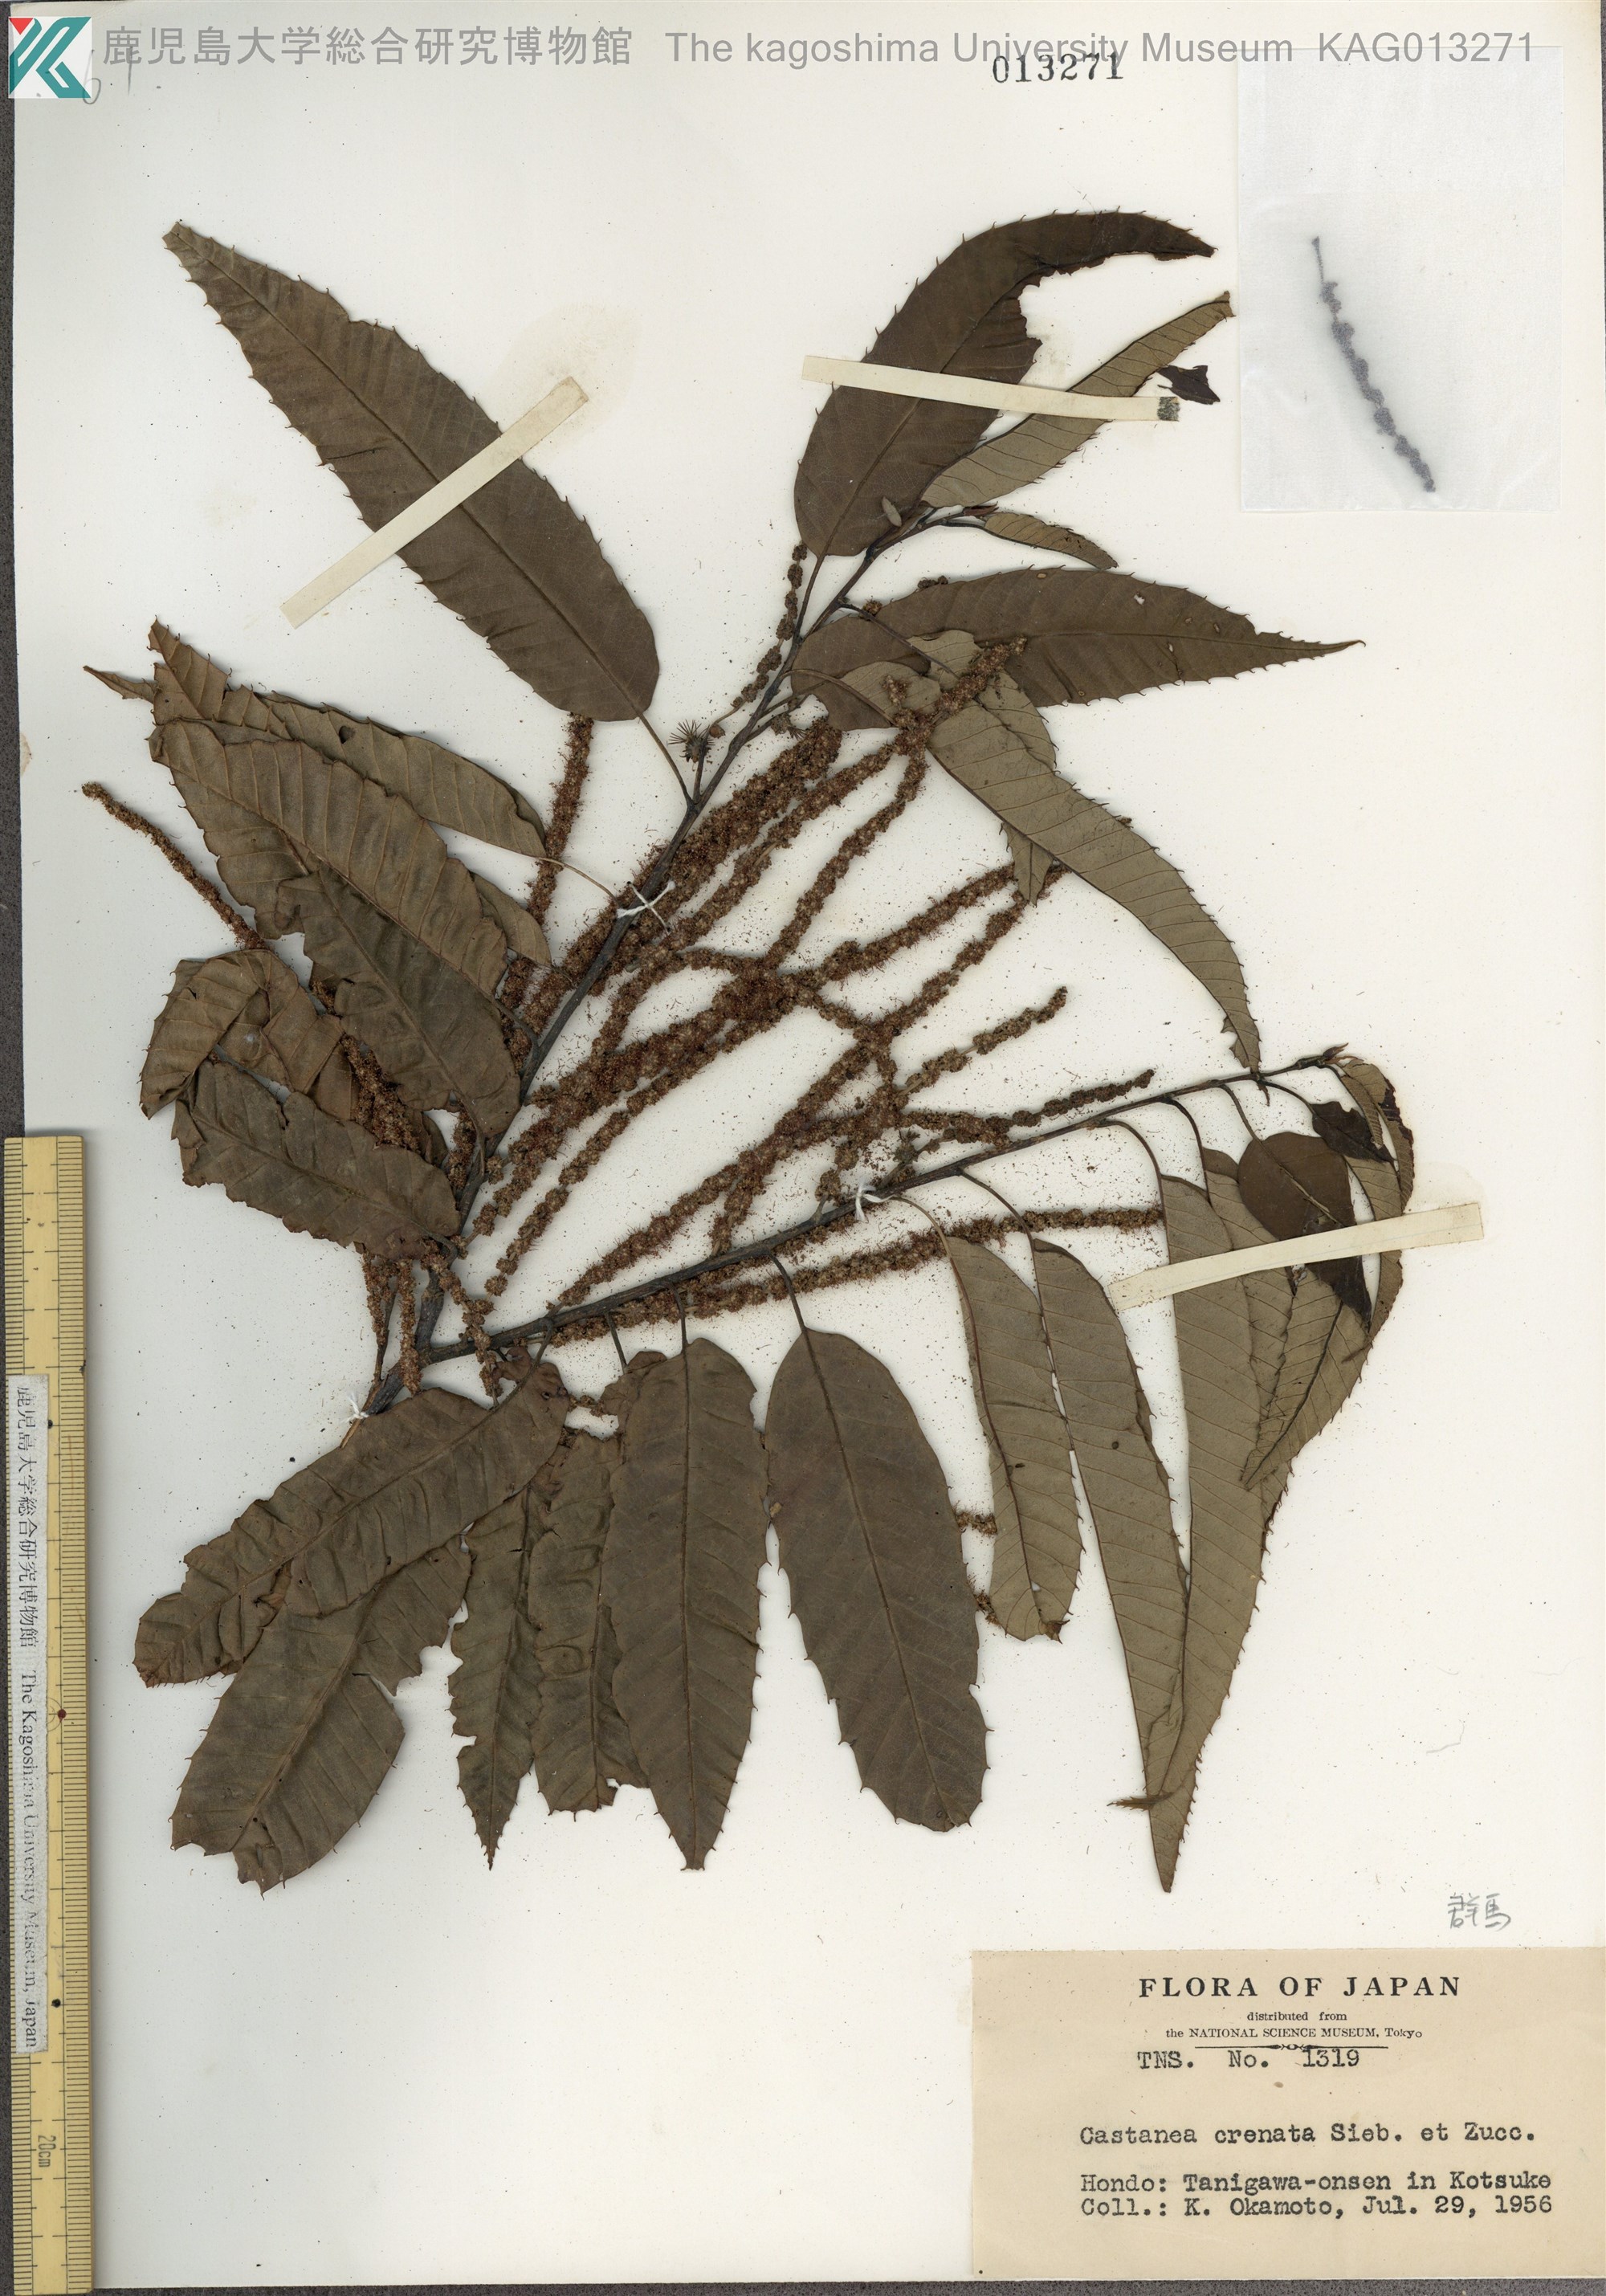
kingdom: Plantae
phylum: Tracheophyta
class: Magnoliopsida
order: Fagales
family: Fagaceae
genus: Castanea
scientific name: Castanea crenata
